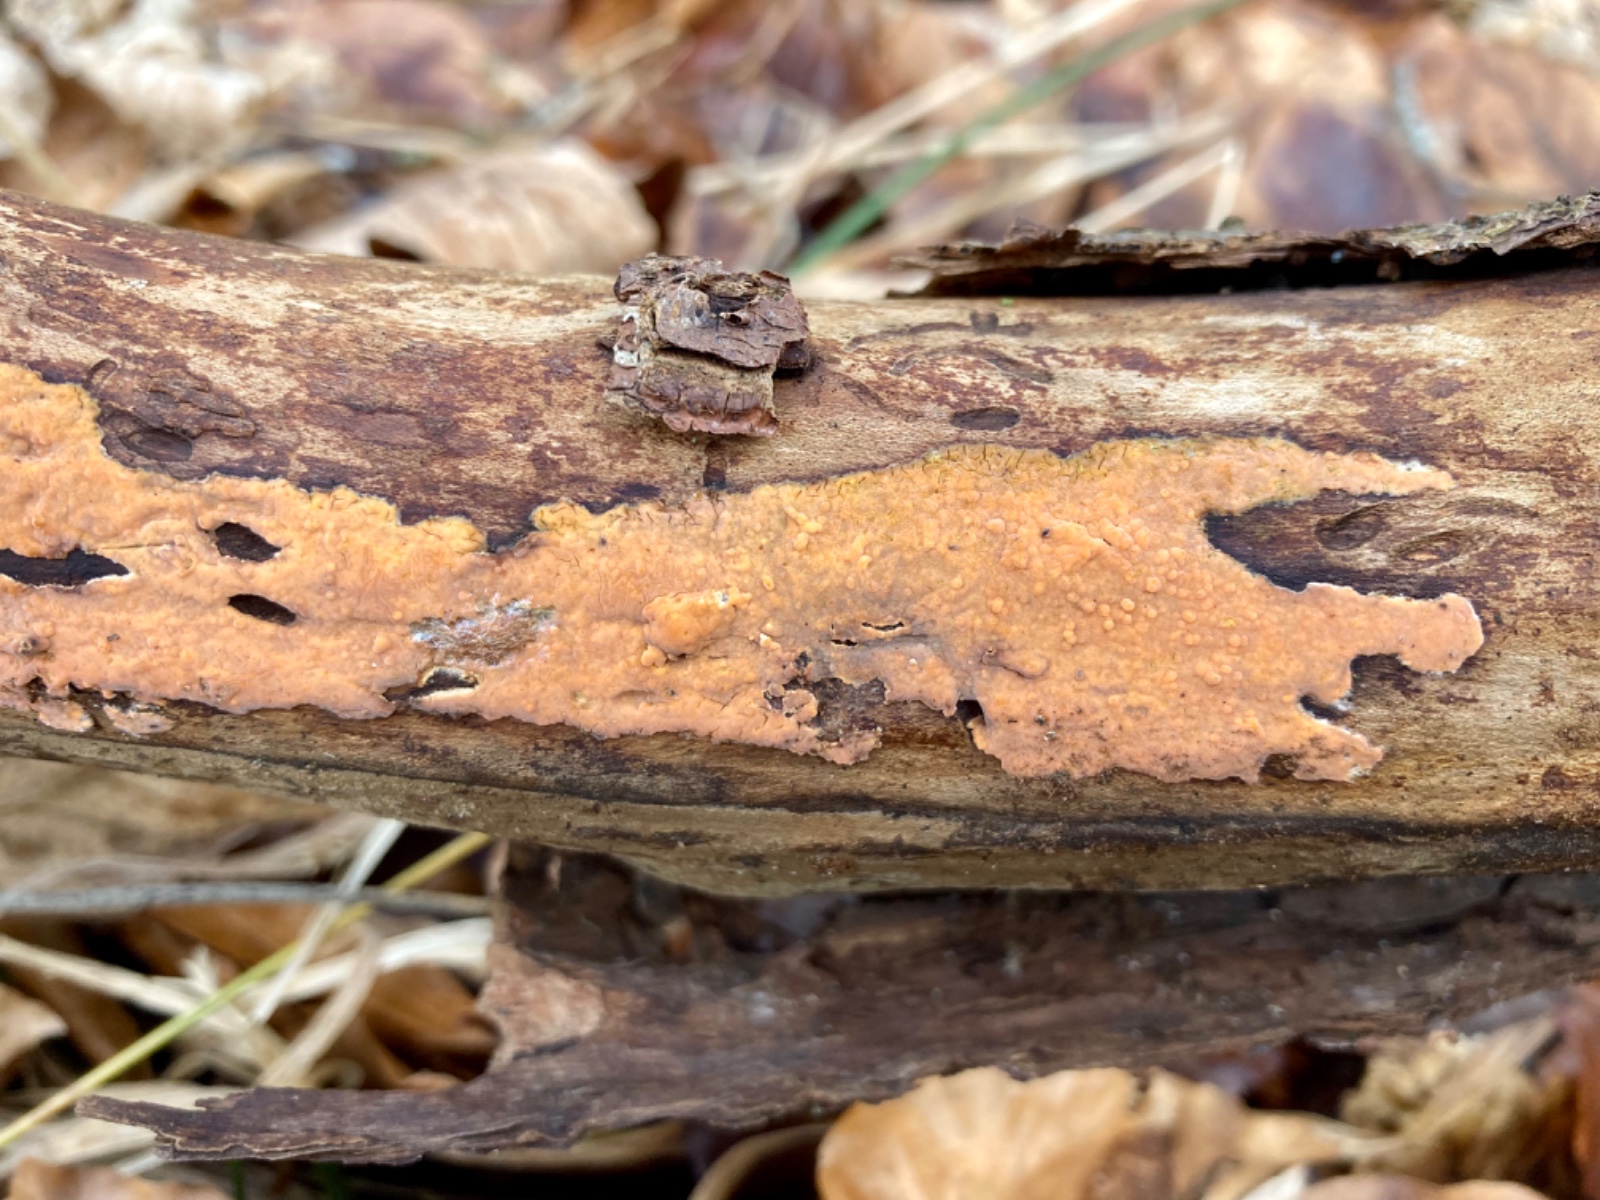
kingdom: Fungi
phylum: Basidiomycota
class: Agaricomycetes
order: Russulales
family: Peniophoraceae
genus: Peniophora
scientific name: Peniophora incarnata
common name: laksefarvet voksskind
